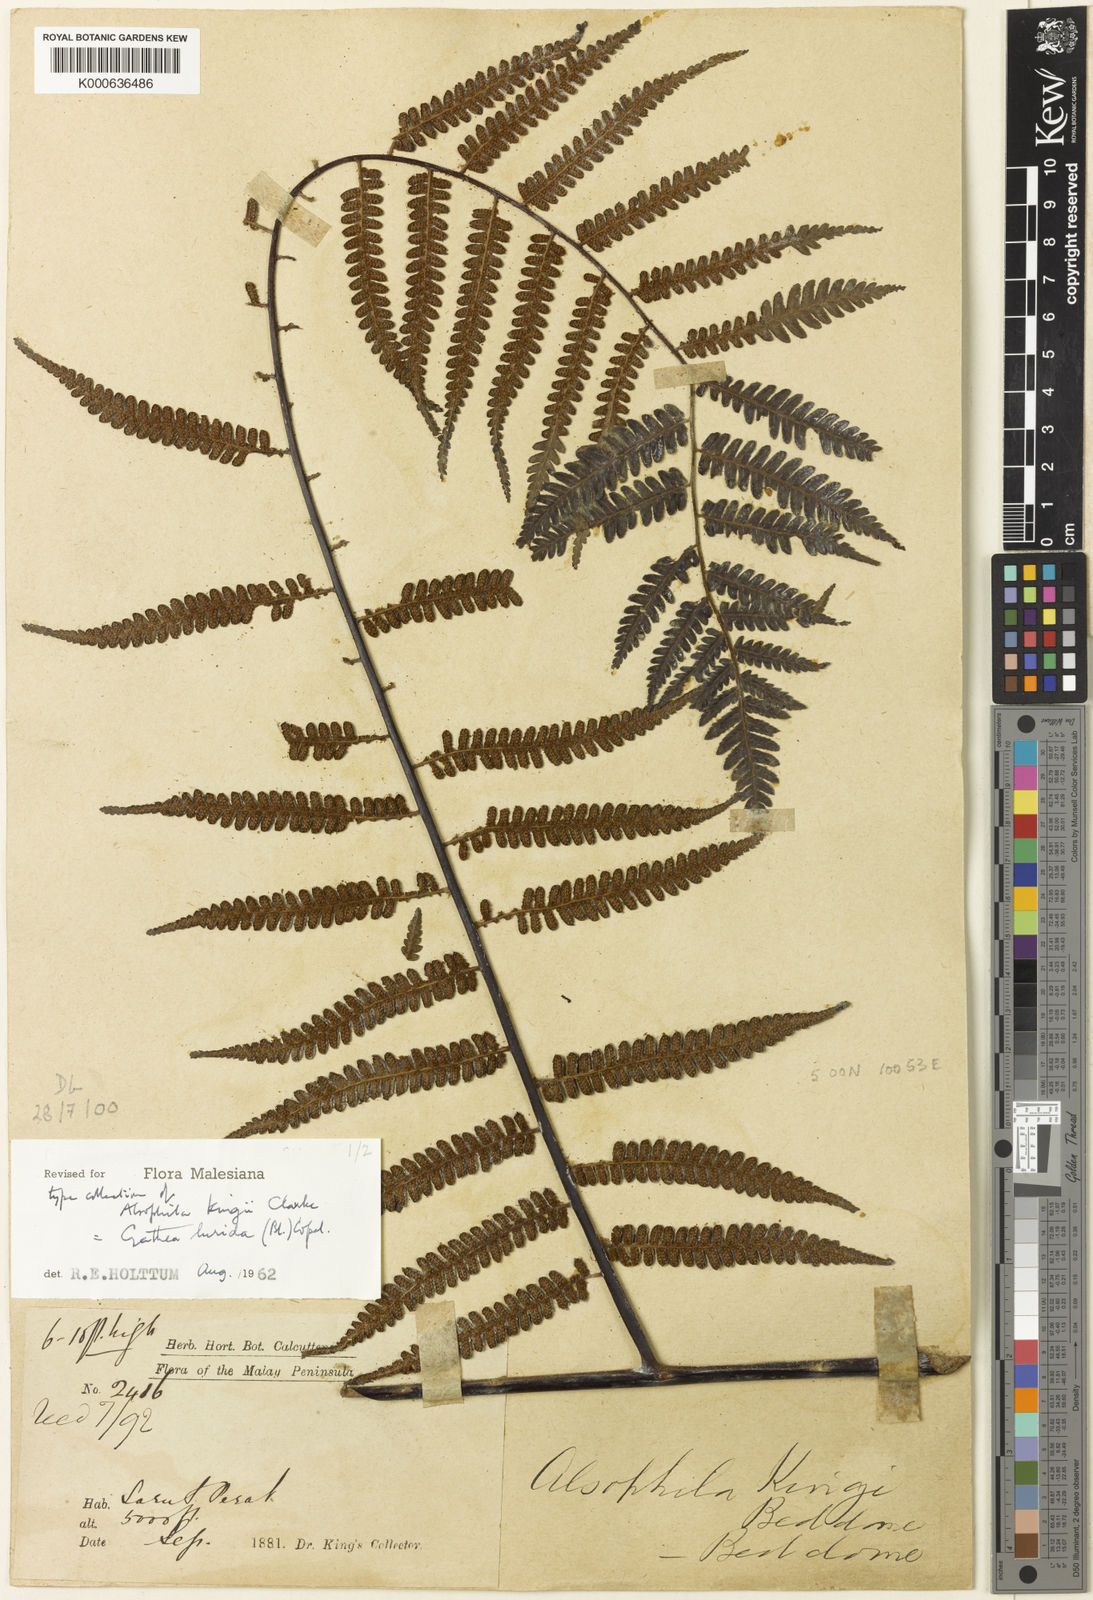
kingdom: Plantae
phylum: Tracheophyta
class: Polypodiopsida
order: Cyatheales
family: Cyatheaceae
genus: Gymnosphaera
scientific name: Gymnosphaera lurida
